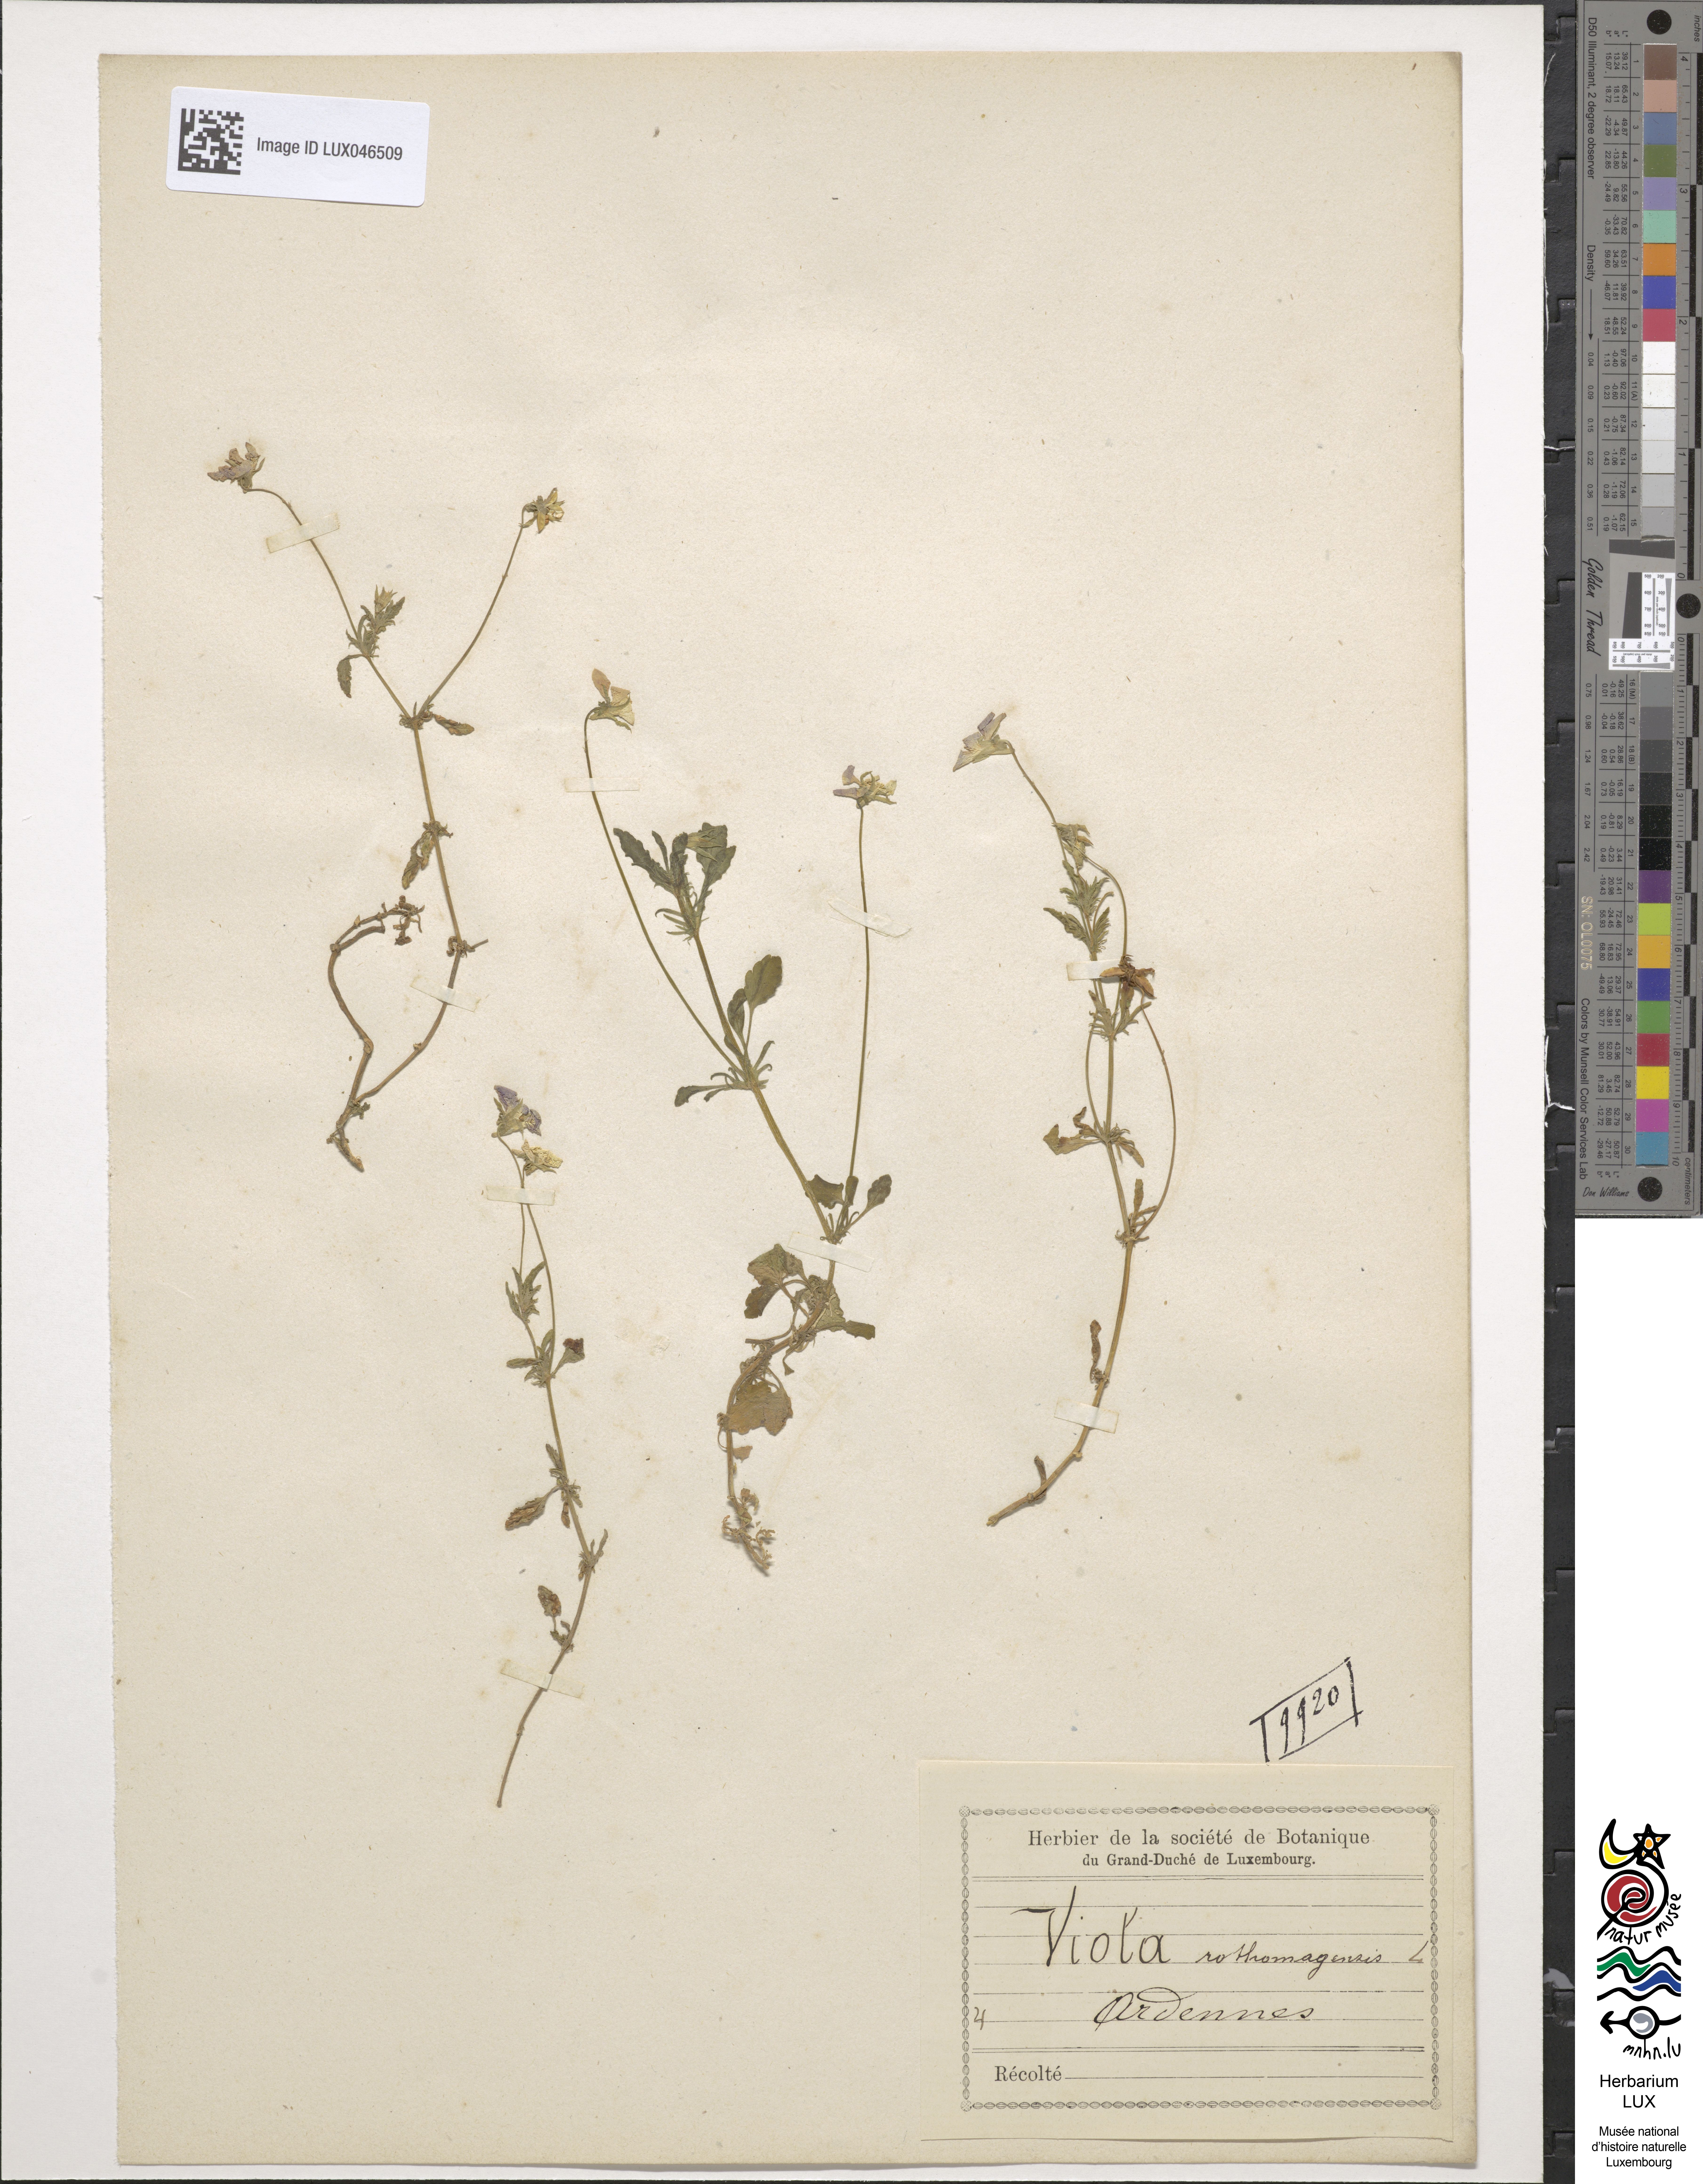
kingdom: Plantae
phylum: Tracheophyta
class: Magnoliopsida
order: Malpighiales
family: Violaceae
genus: Viola
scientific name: Viola hispida
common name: Rouen pansy
